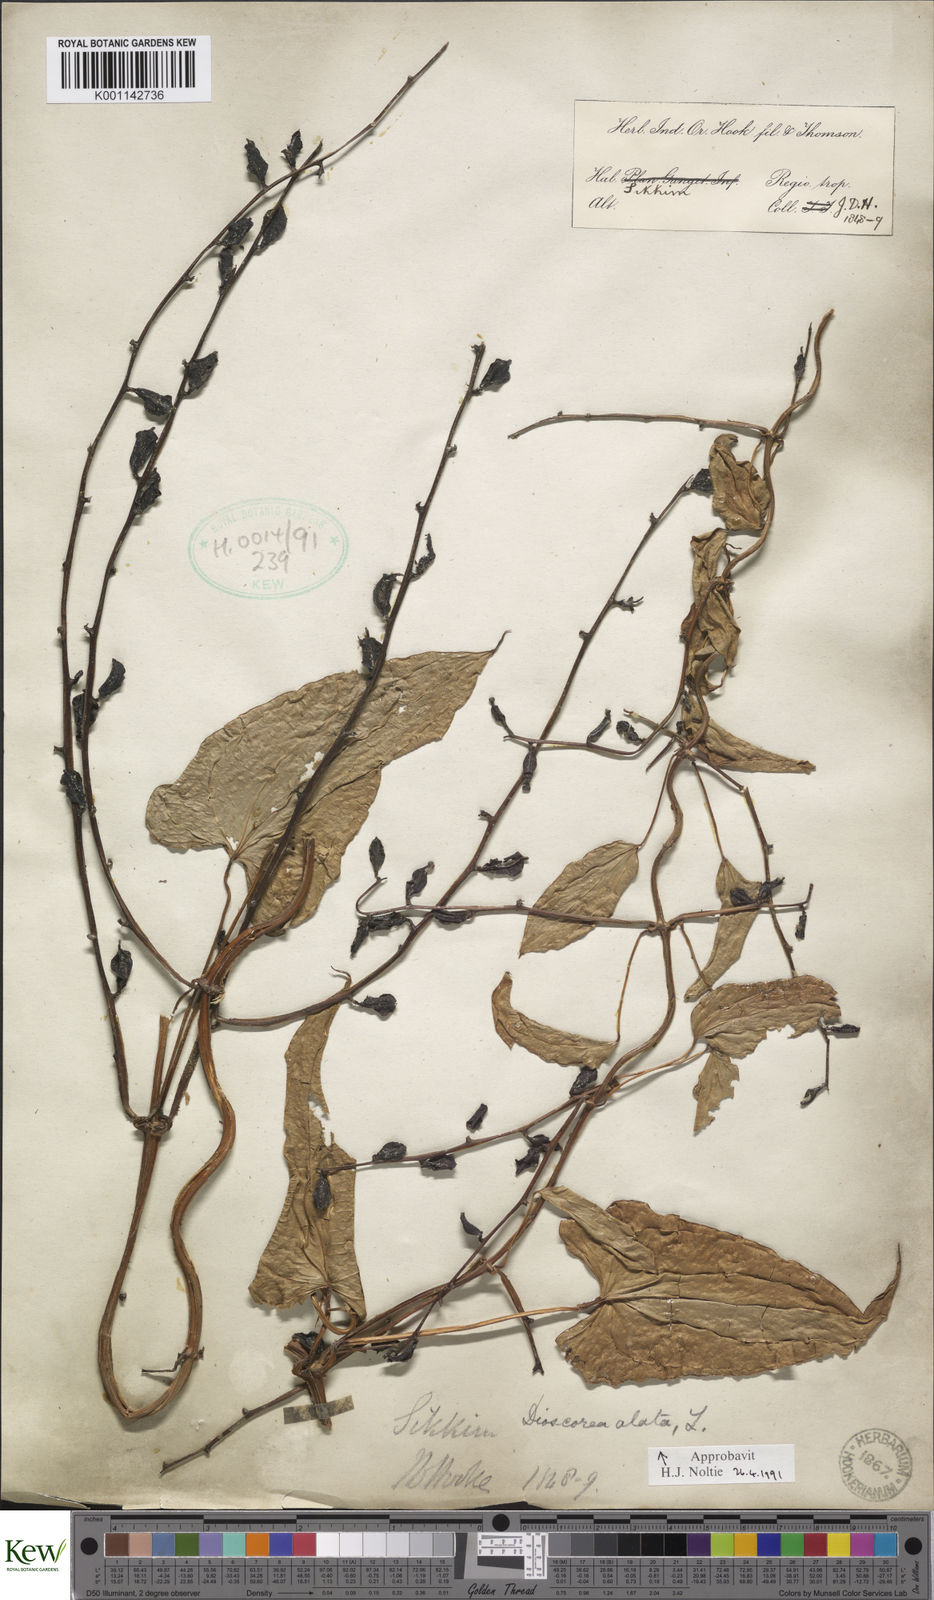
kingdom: Plantae
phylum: Tracheophyta
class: Liliopsida
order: Dioscoreales
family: Dioscoreaceae
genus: Dioscorea
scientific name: Dioscorea alata
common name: Water yam
